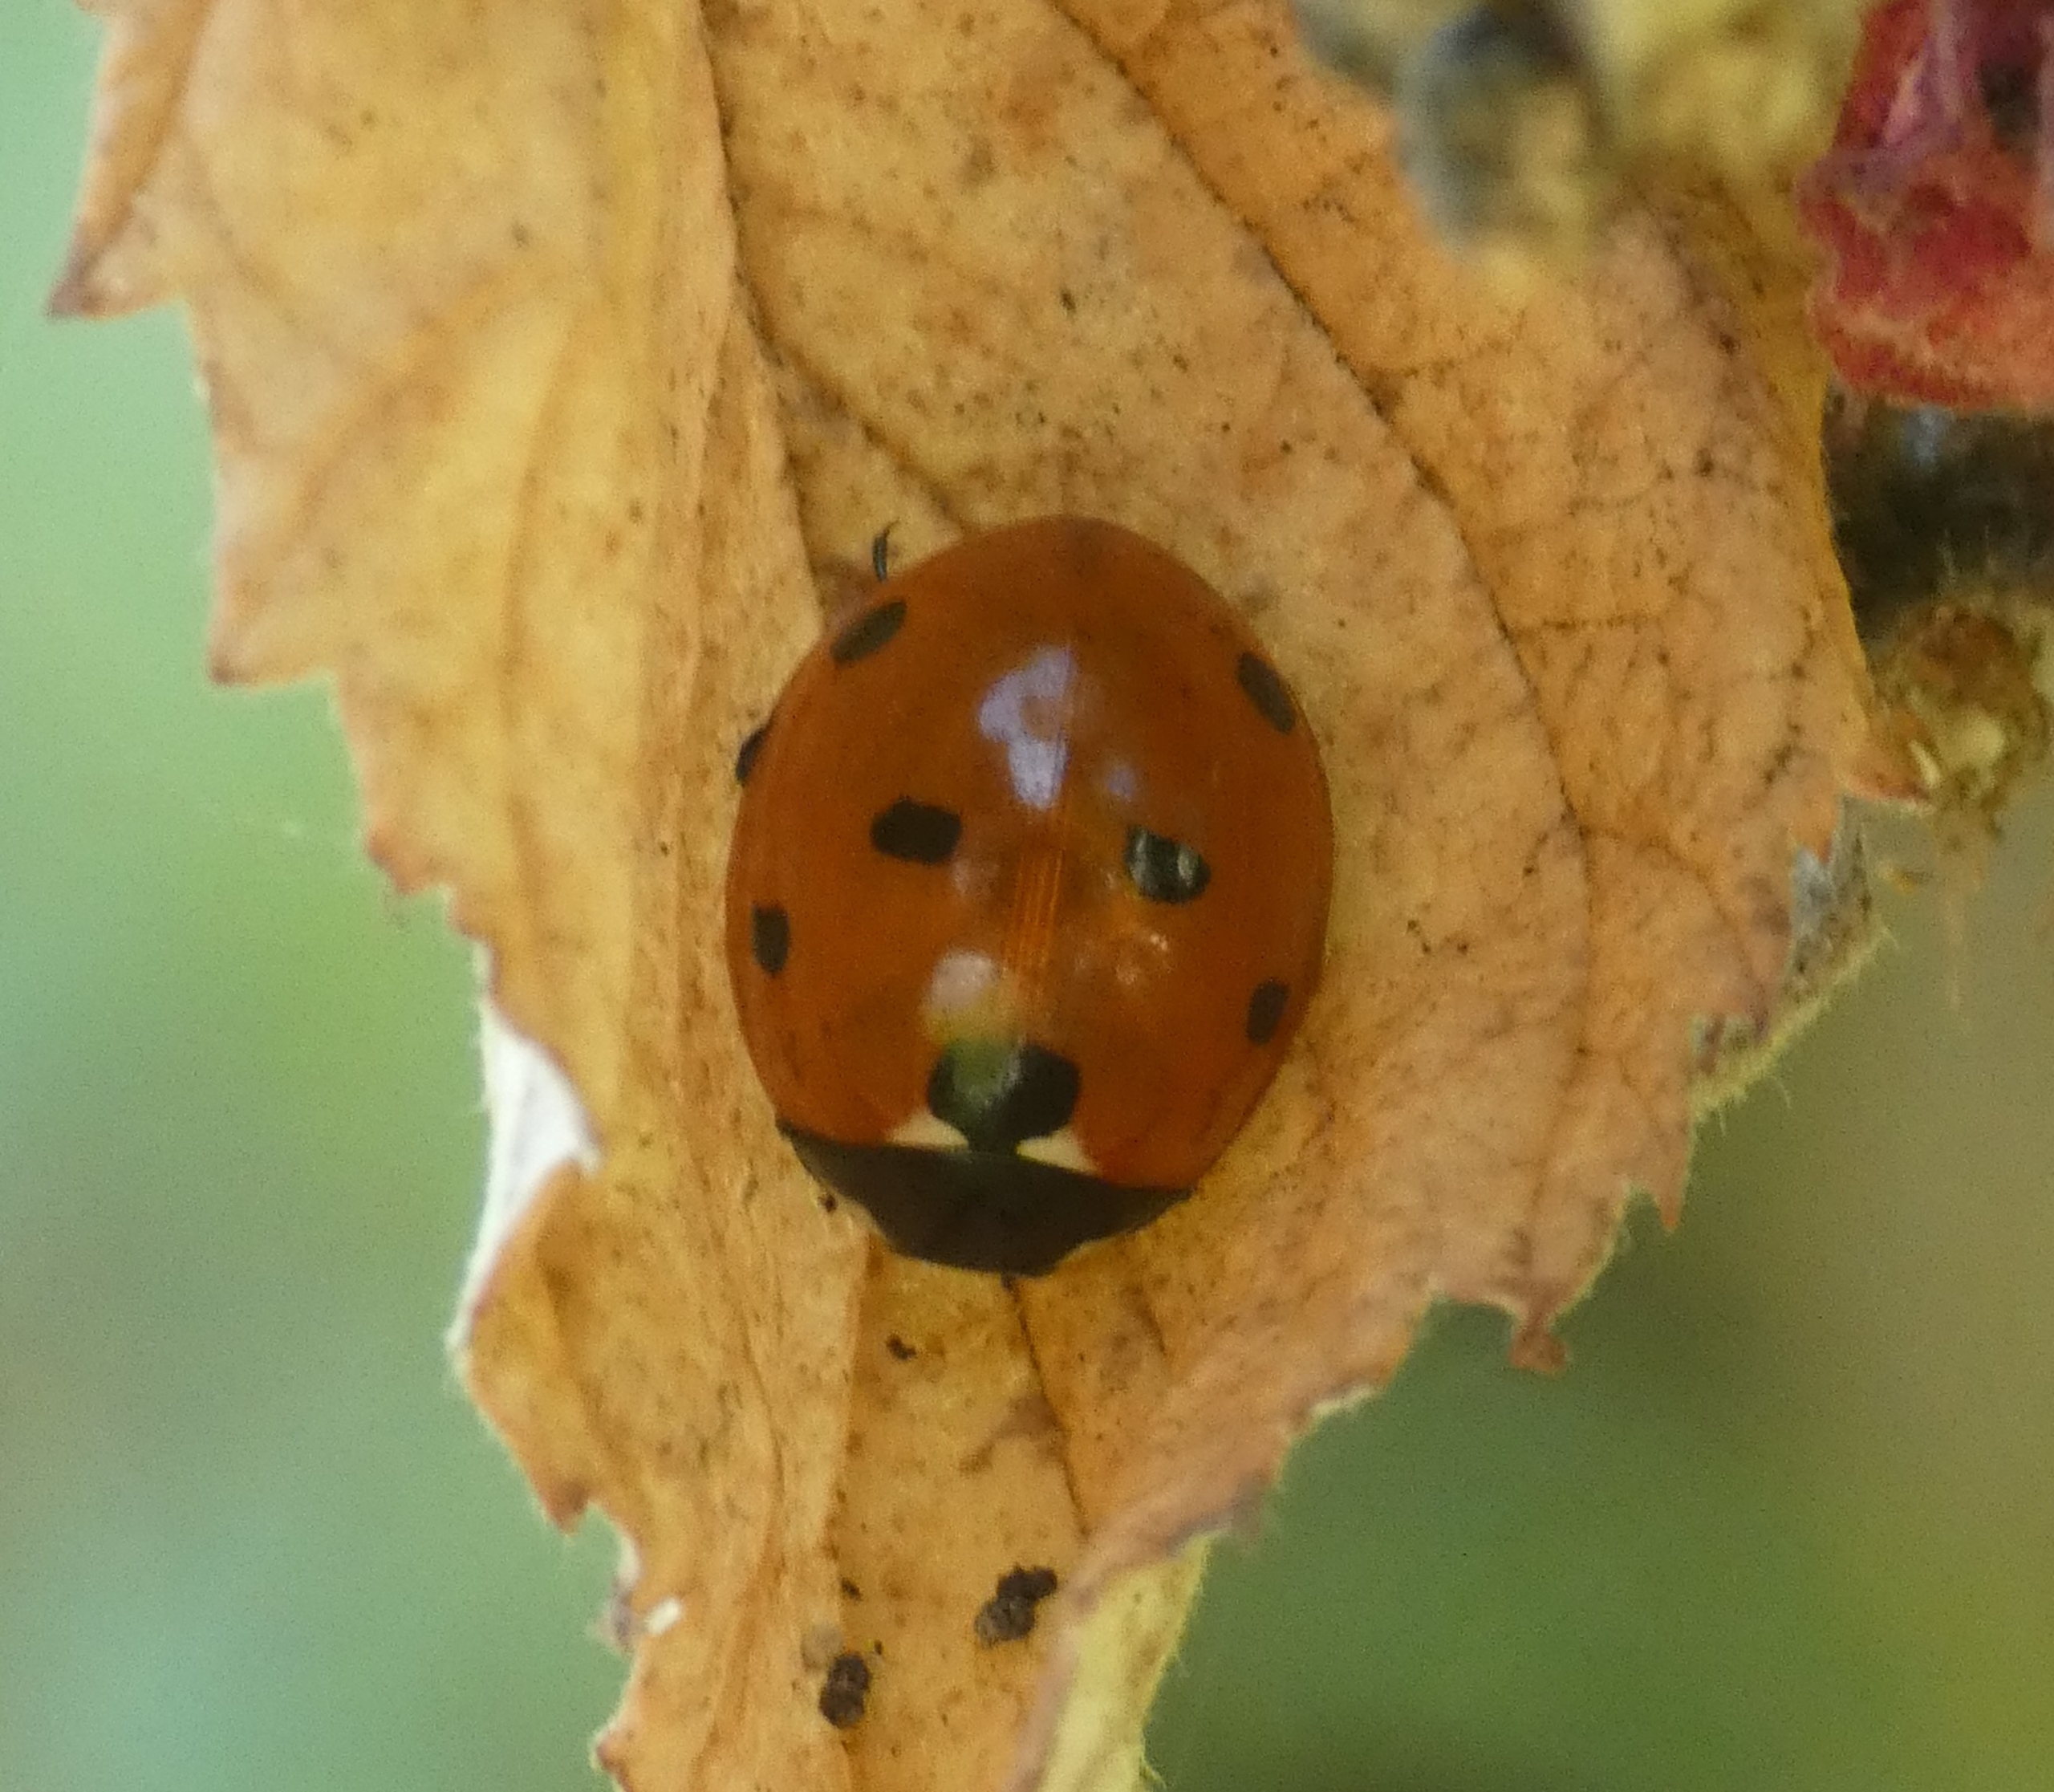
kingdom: Animalia
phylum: Arthropoda
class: Insecta
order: Coleoptera
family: Coccinellidae
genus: Coccinella
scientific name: Coccinella septempunctata
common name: Syvplettet mariehøne
